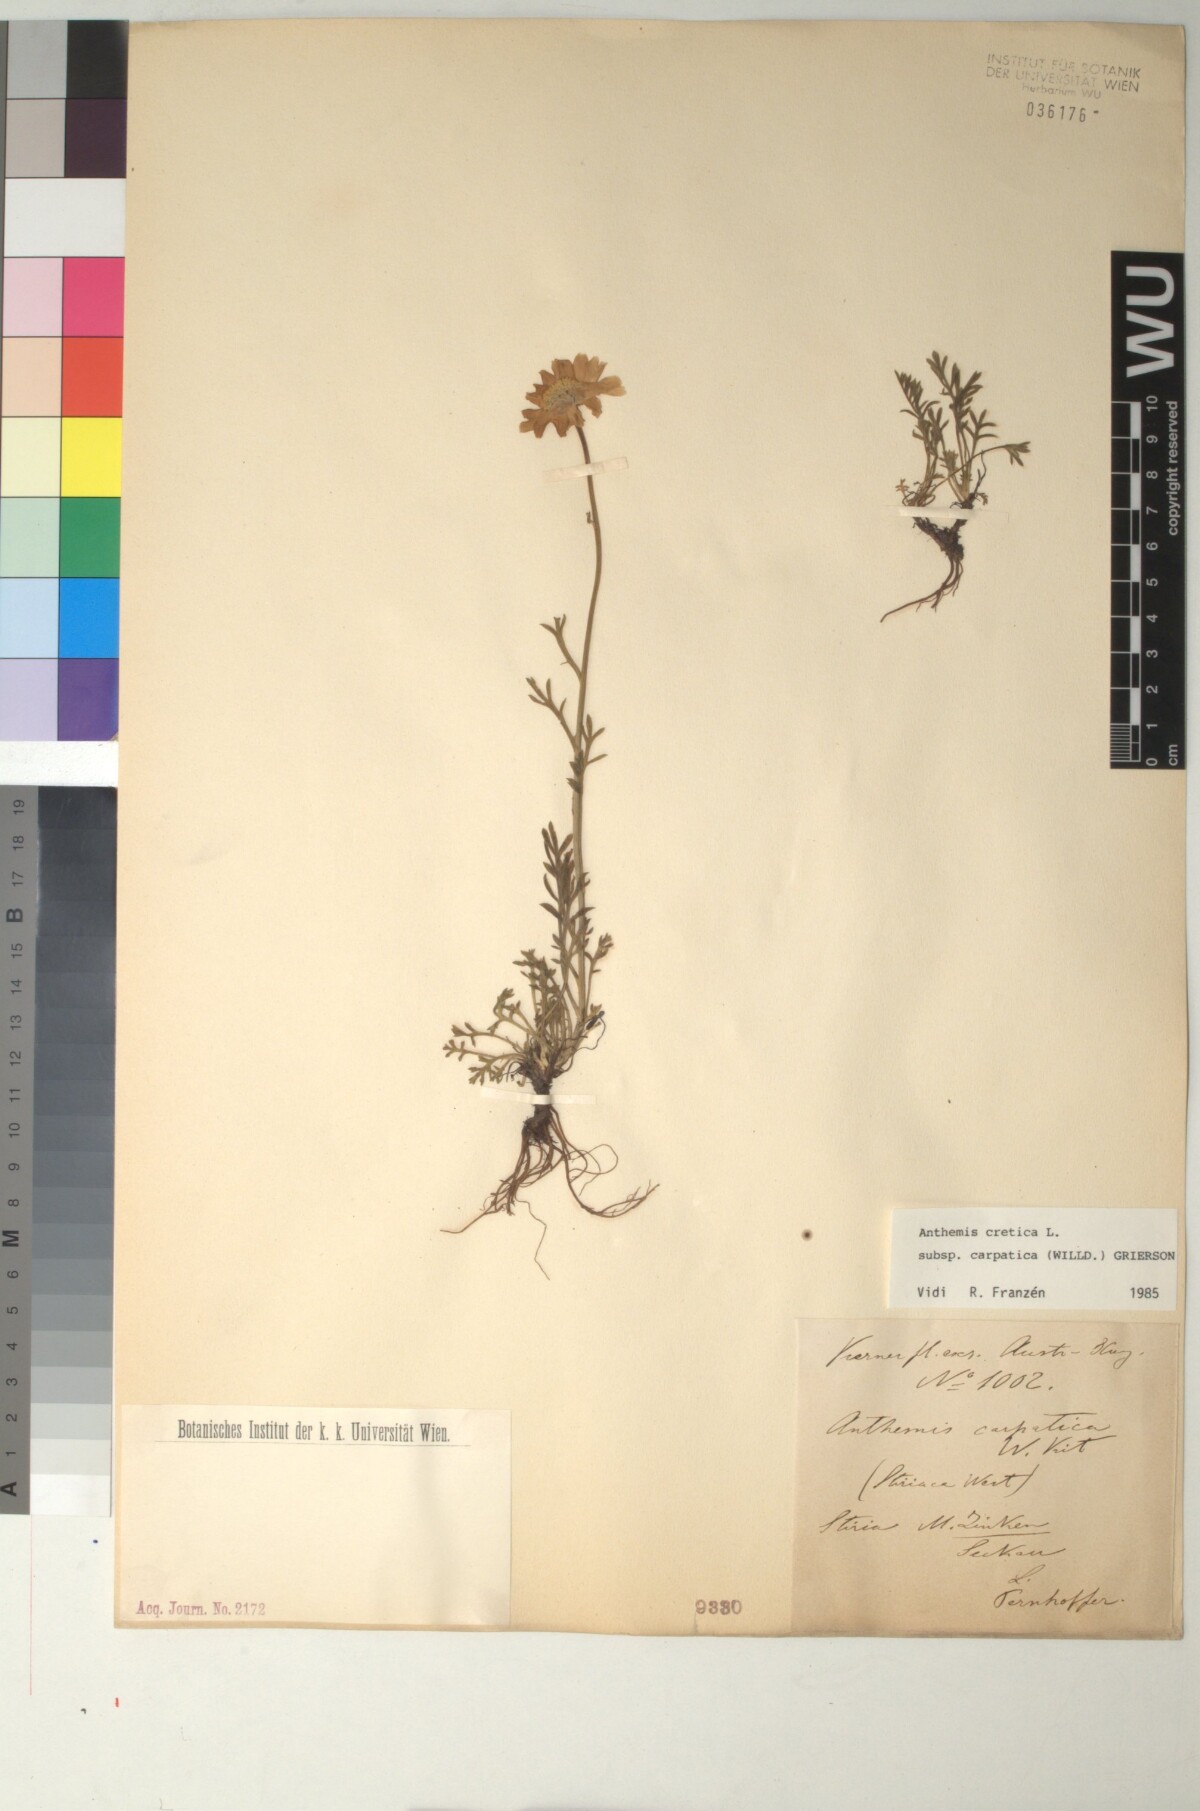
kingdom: Plantae
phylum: Tracheophyta
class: Magnoliopsida
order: Asterales
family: Asteraceae
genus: Anthemis
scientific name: Anthemis cretica
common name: Mountain dog-daisy
